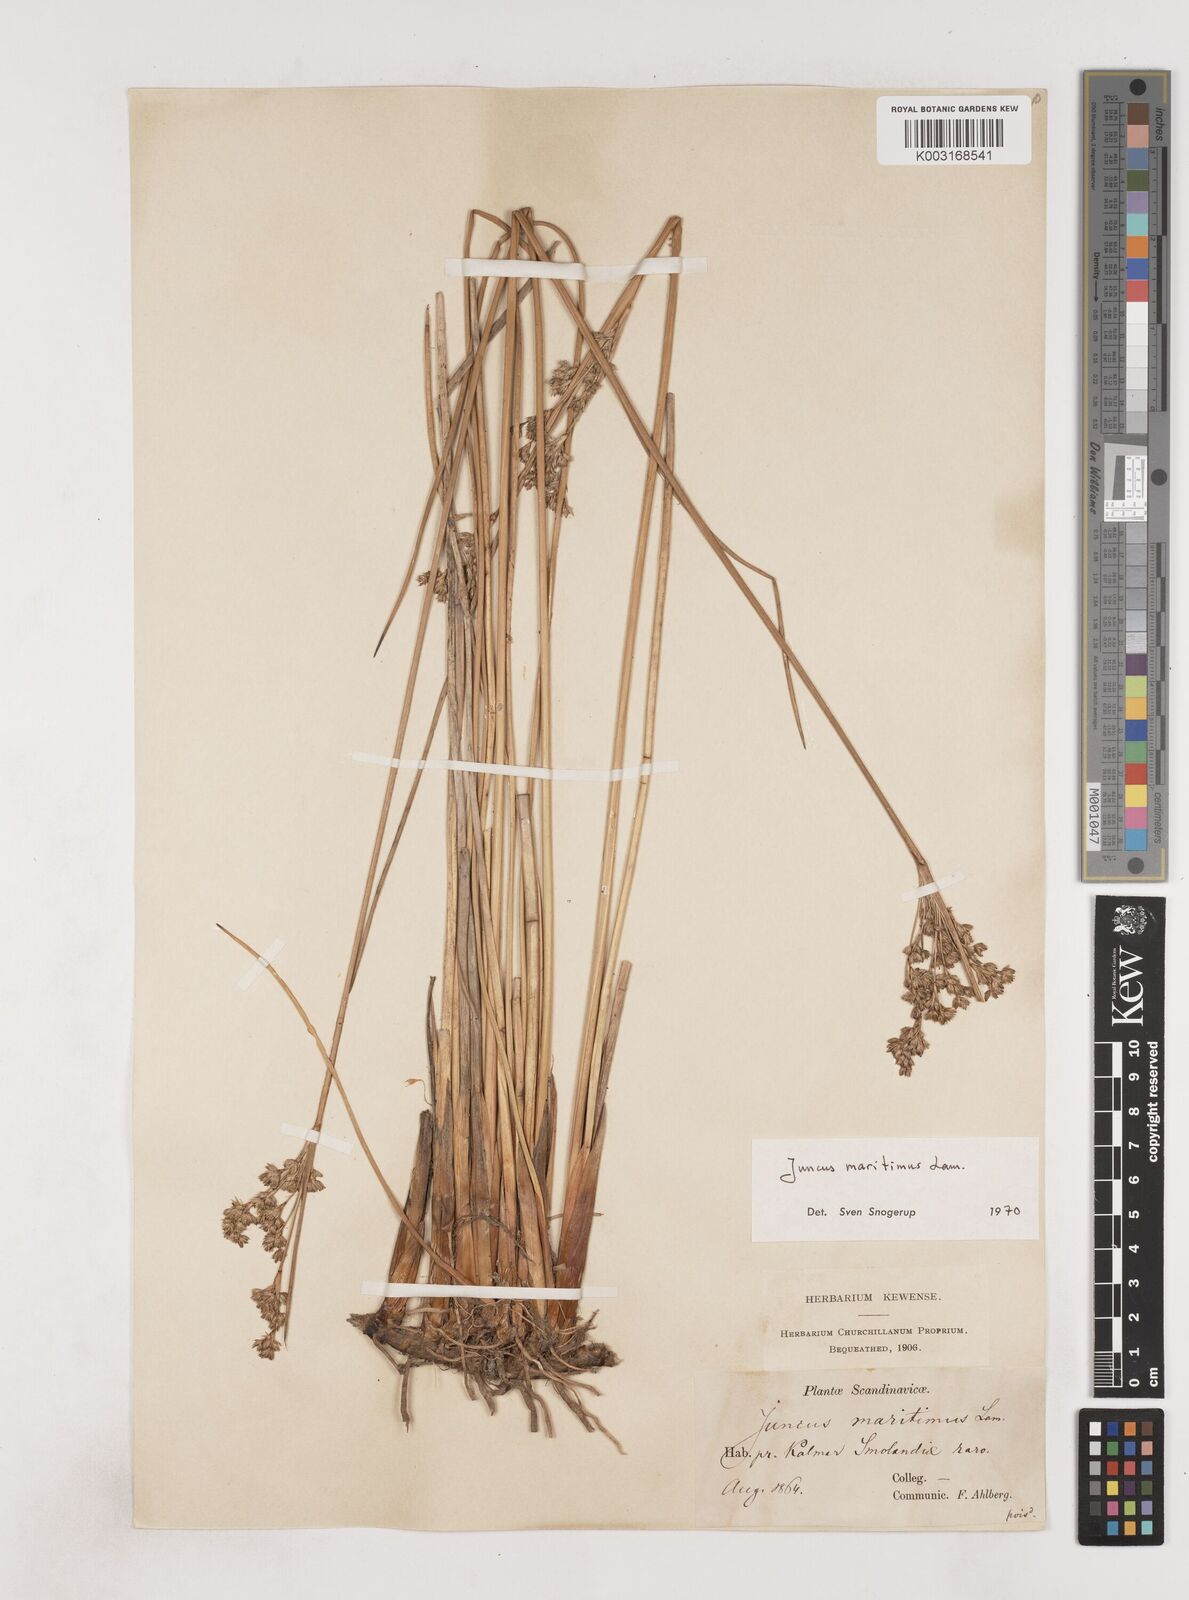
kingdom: Plantae
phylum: Tracheophyta
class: Liliopsida
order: Poales
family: Juncaceae
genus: Juncus
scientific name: Juncus maritimus
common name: Sea rush
